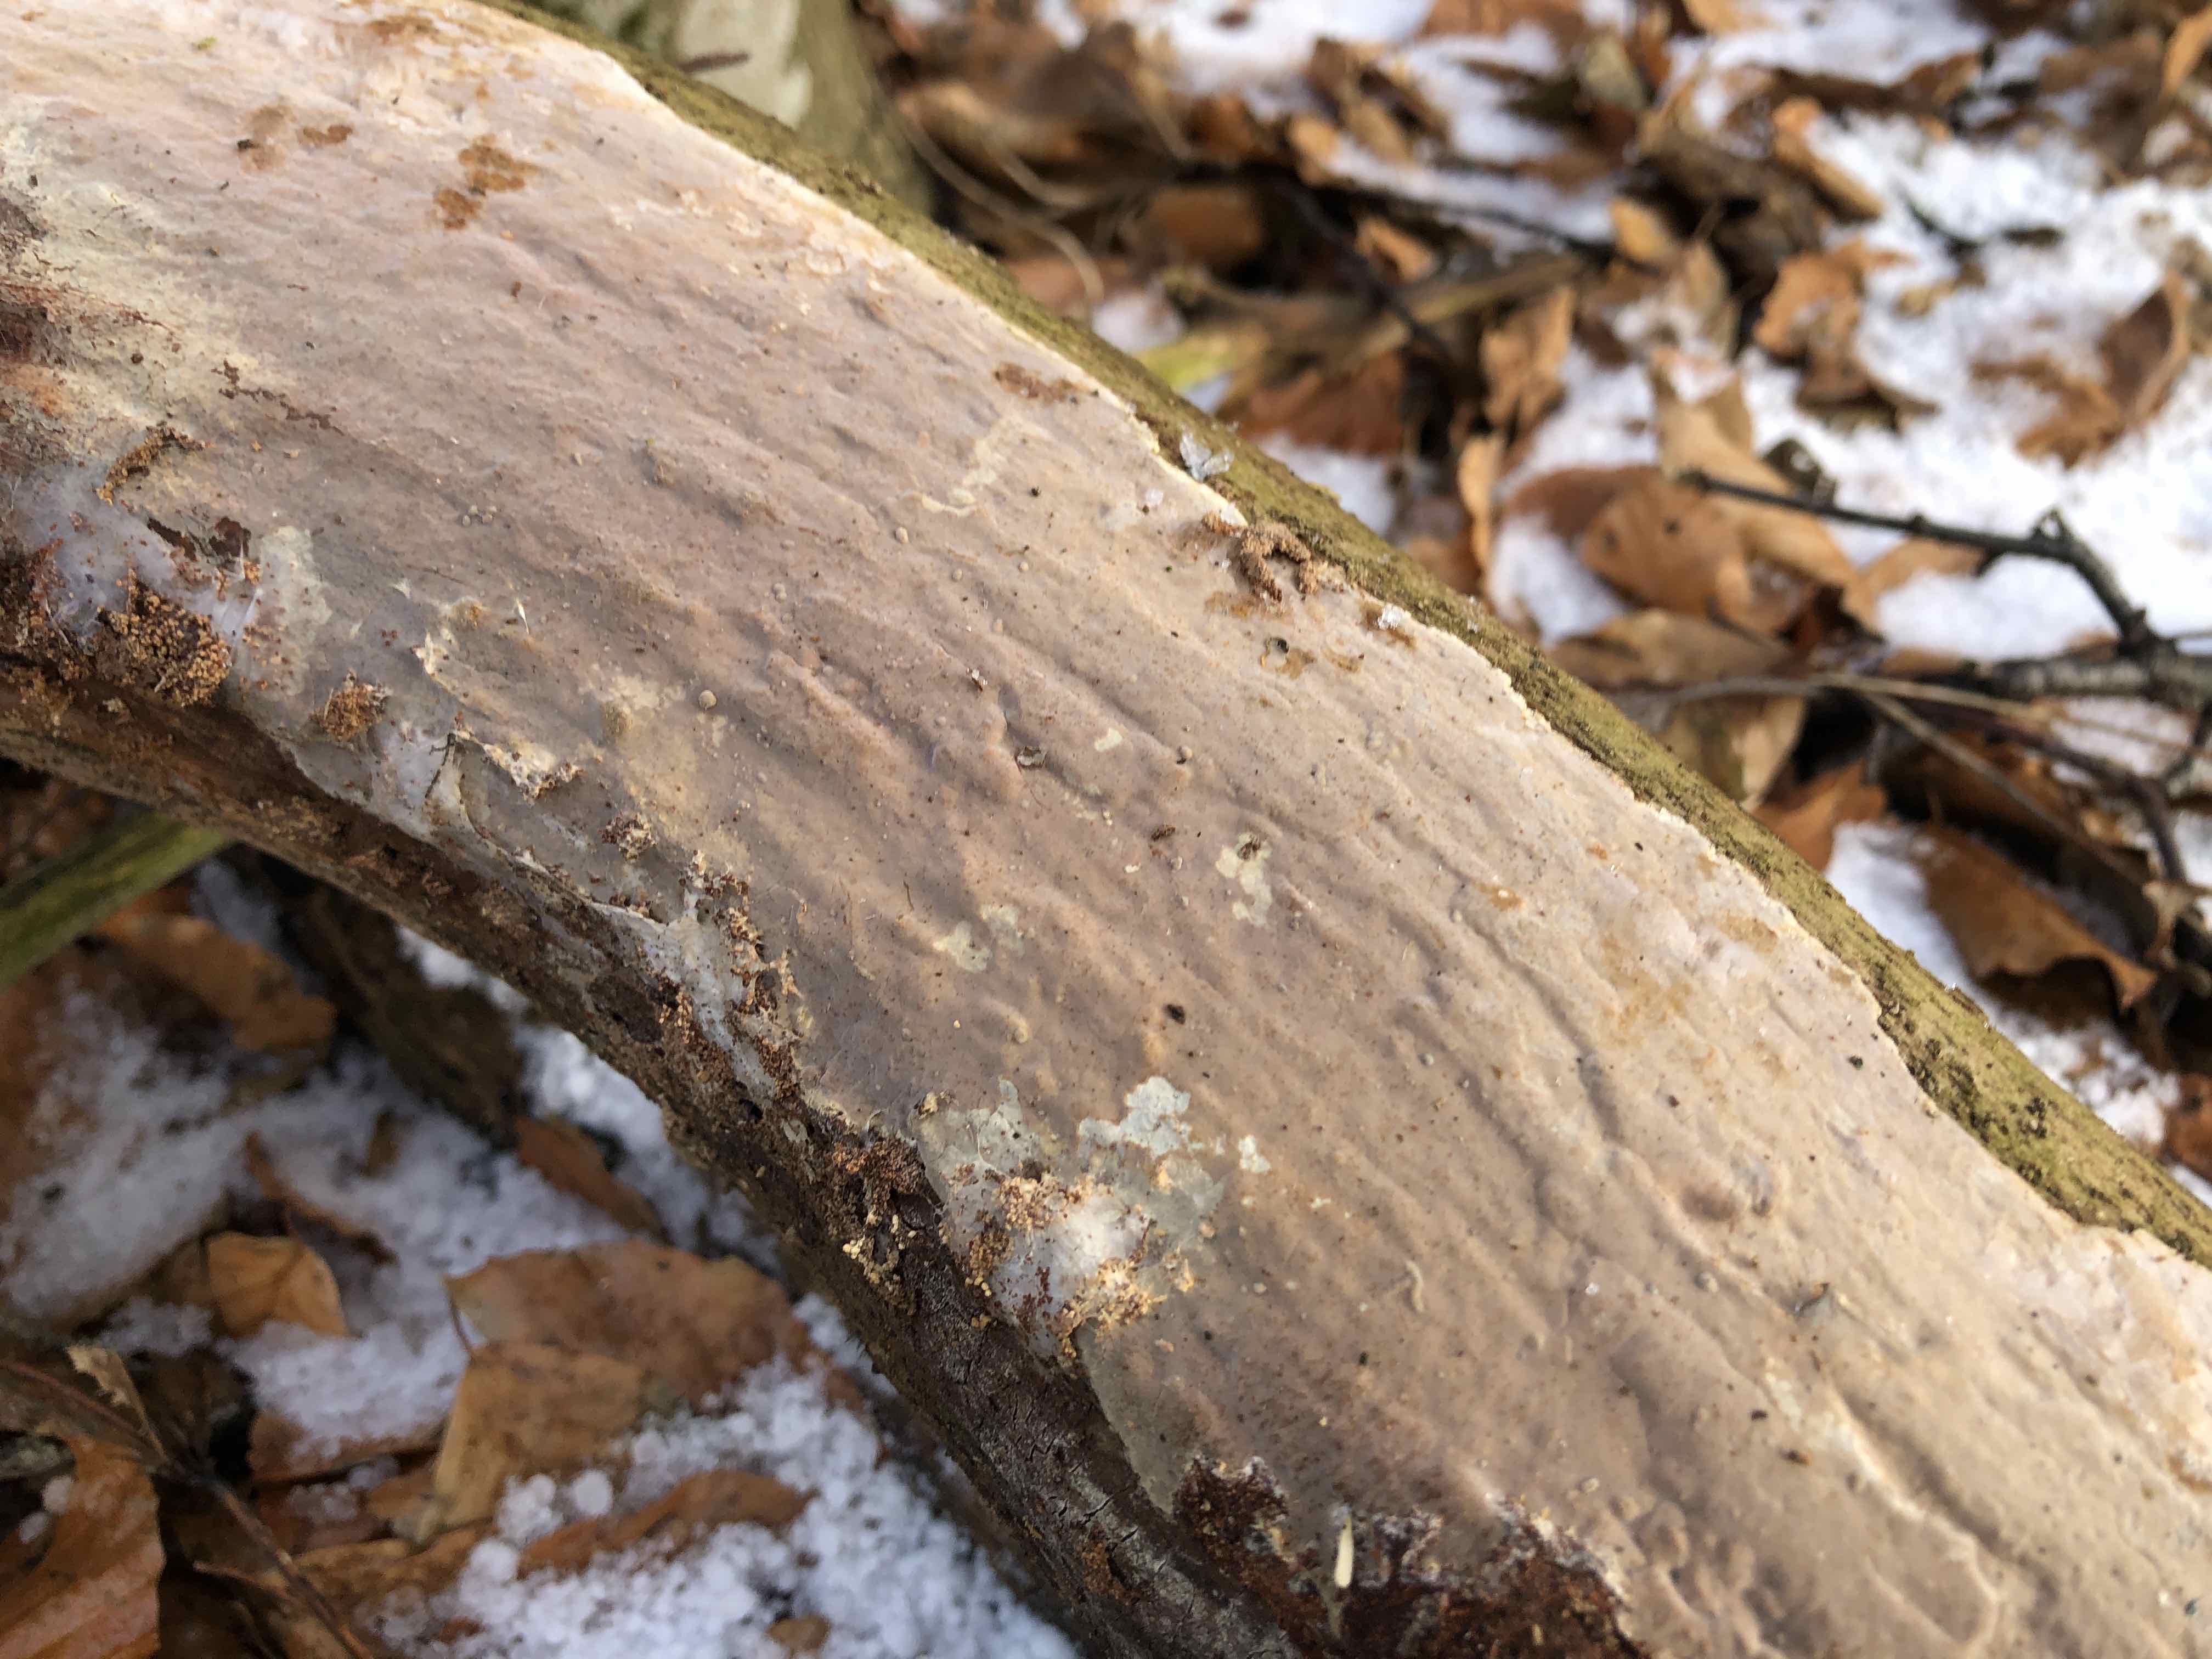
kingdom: Fungi
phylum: Basidiomycota
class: Agaricomycetes
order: Russulales
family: Peniophoraceae
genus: Scytinostroma
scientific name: Scytinostroma hemidichophyticum
